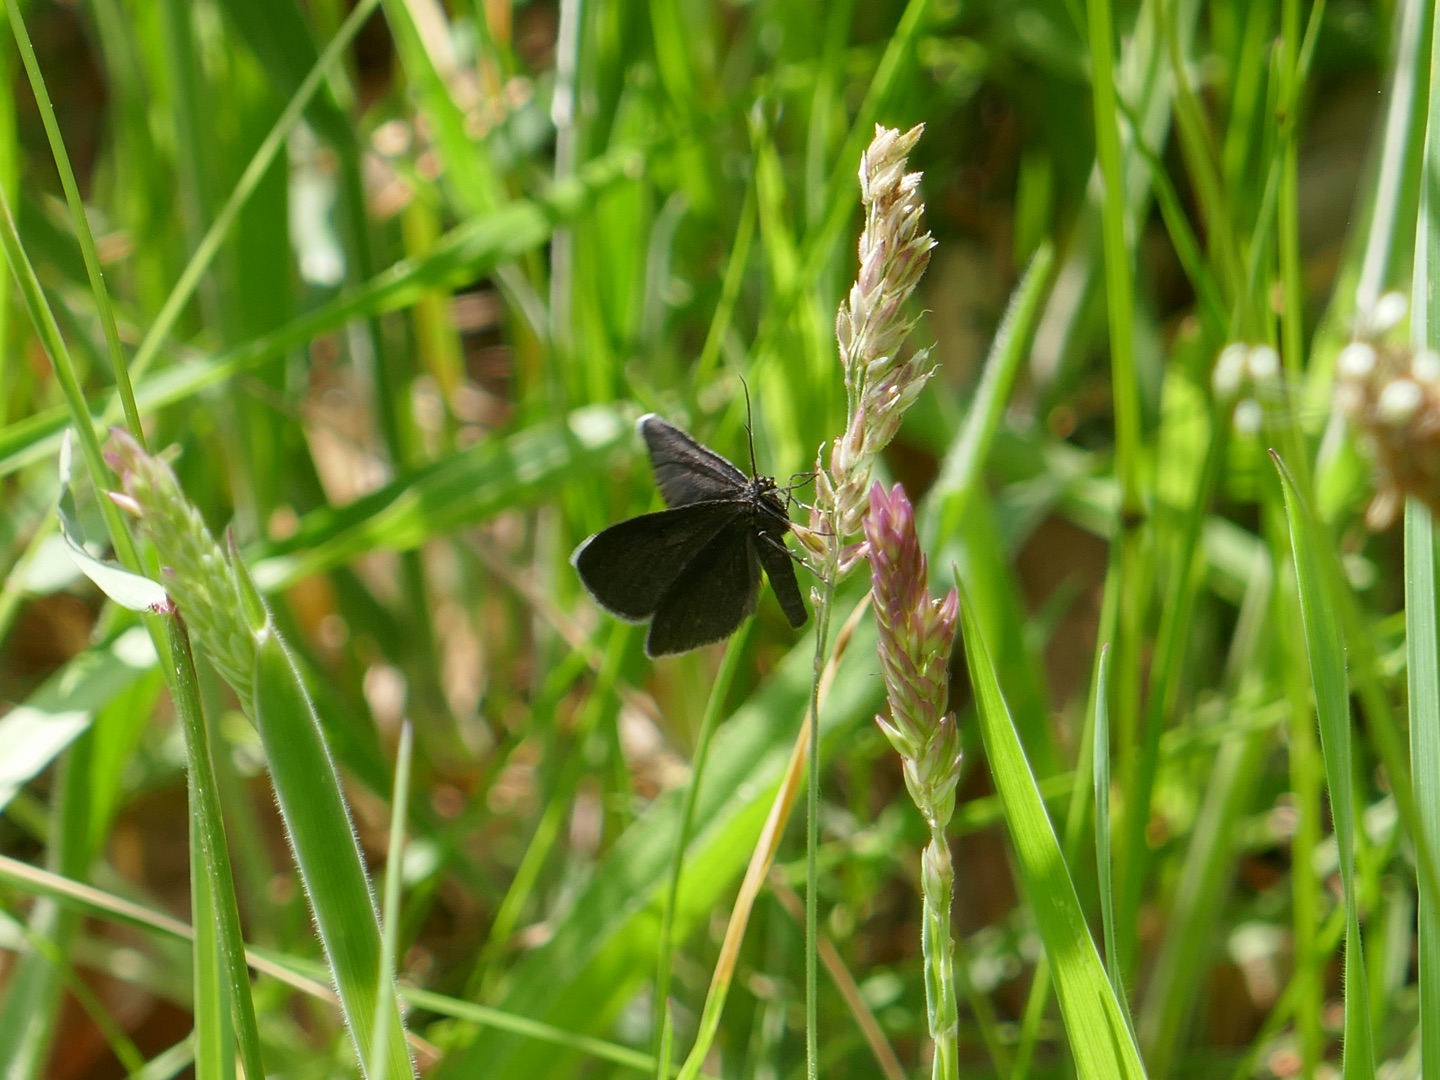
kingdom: Animalia
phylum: Arthropoda
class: Insecta
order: Lepidoptera
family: Geometridae
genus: Odezia
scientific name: Odezia atrata
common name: Sort måler
